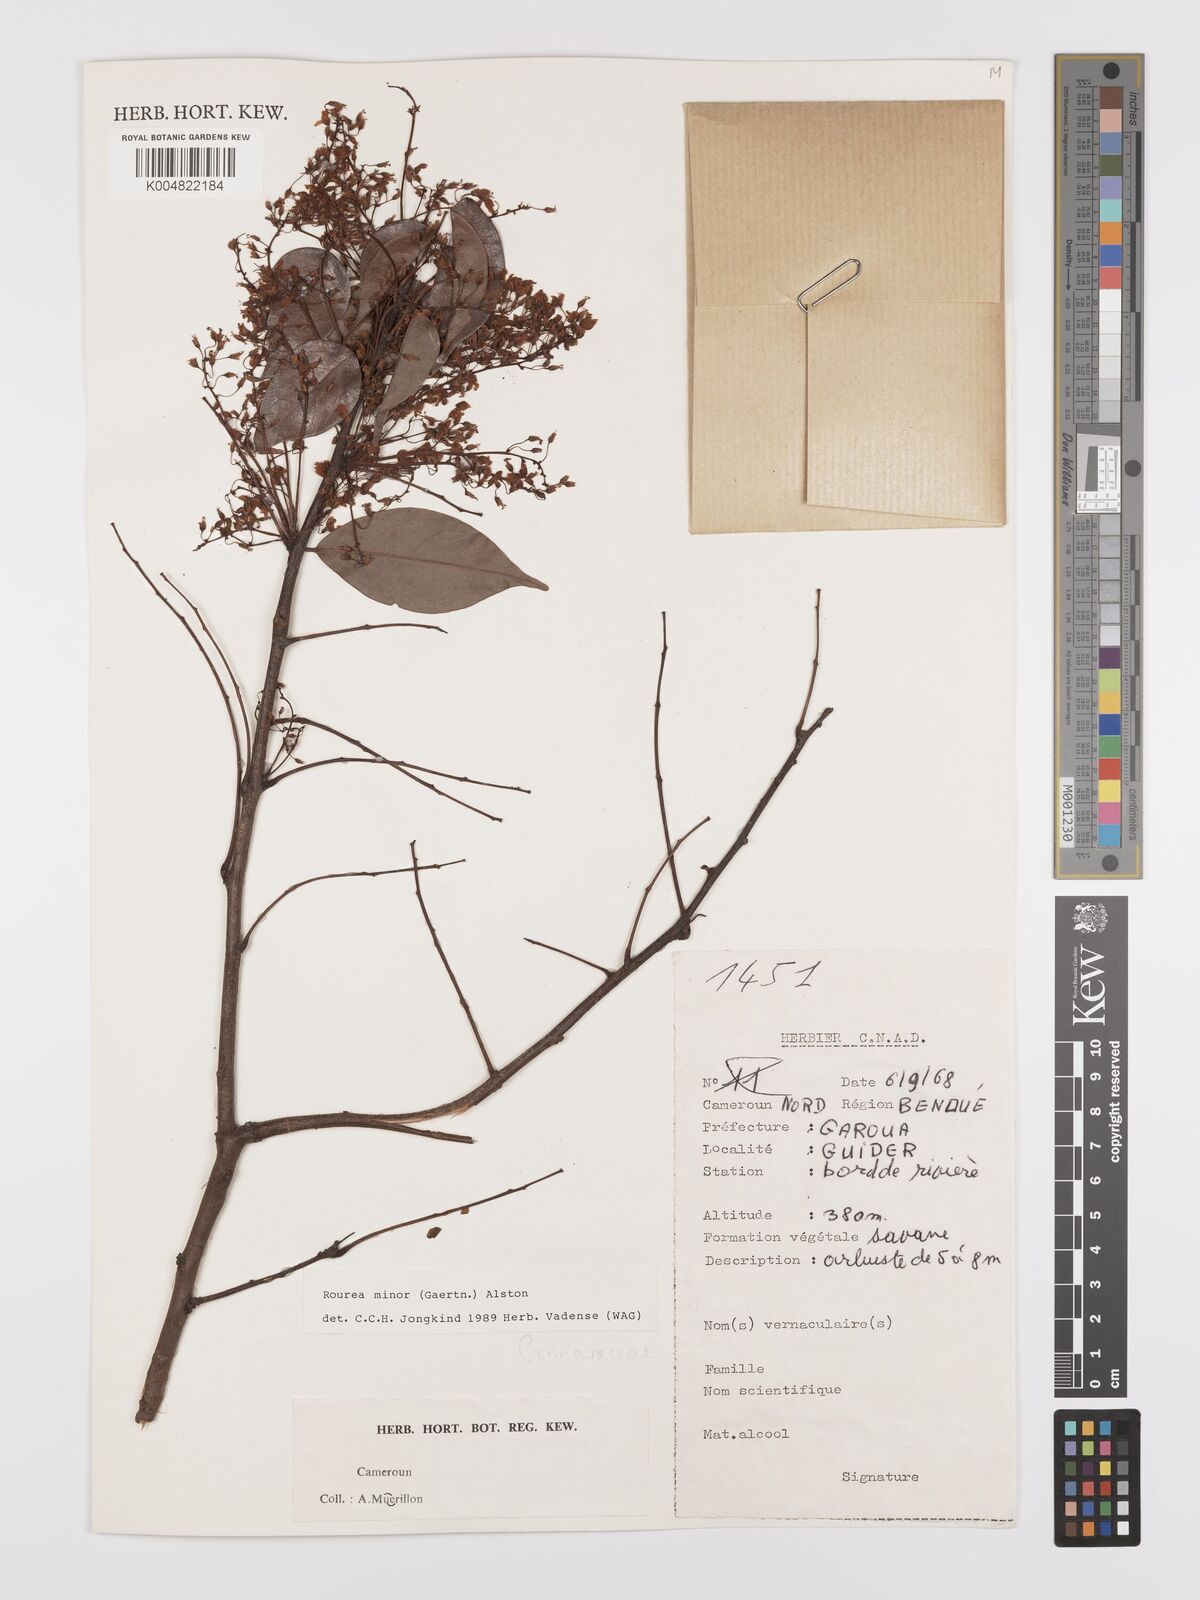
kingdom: Plantae
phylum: Tracheophyta
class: Magnoliopsida
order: Oxalidales
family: Connaraceae
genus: Rourea
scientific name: Rourea minor
